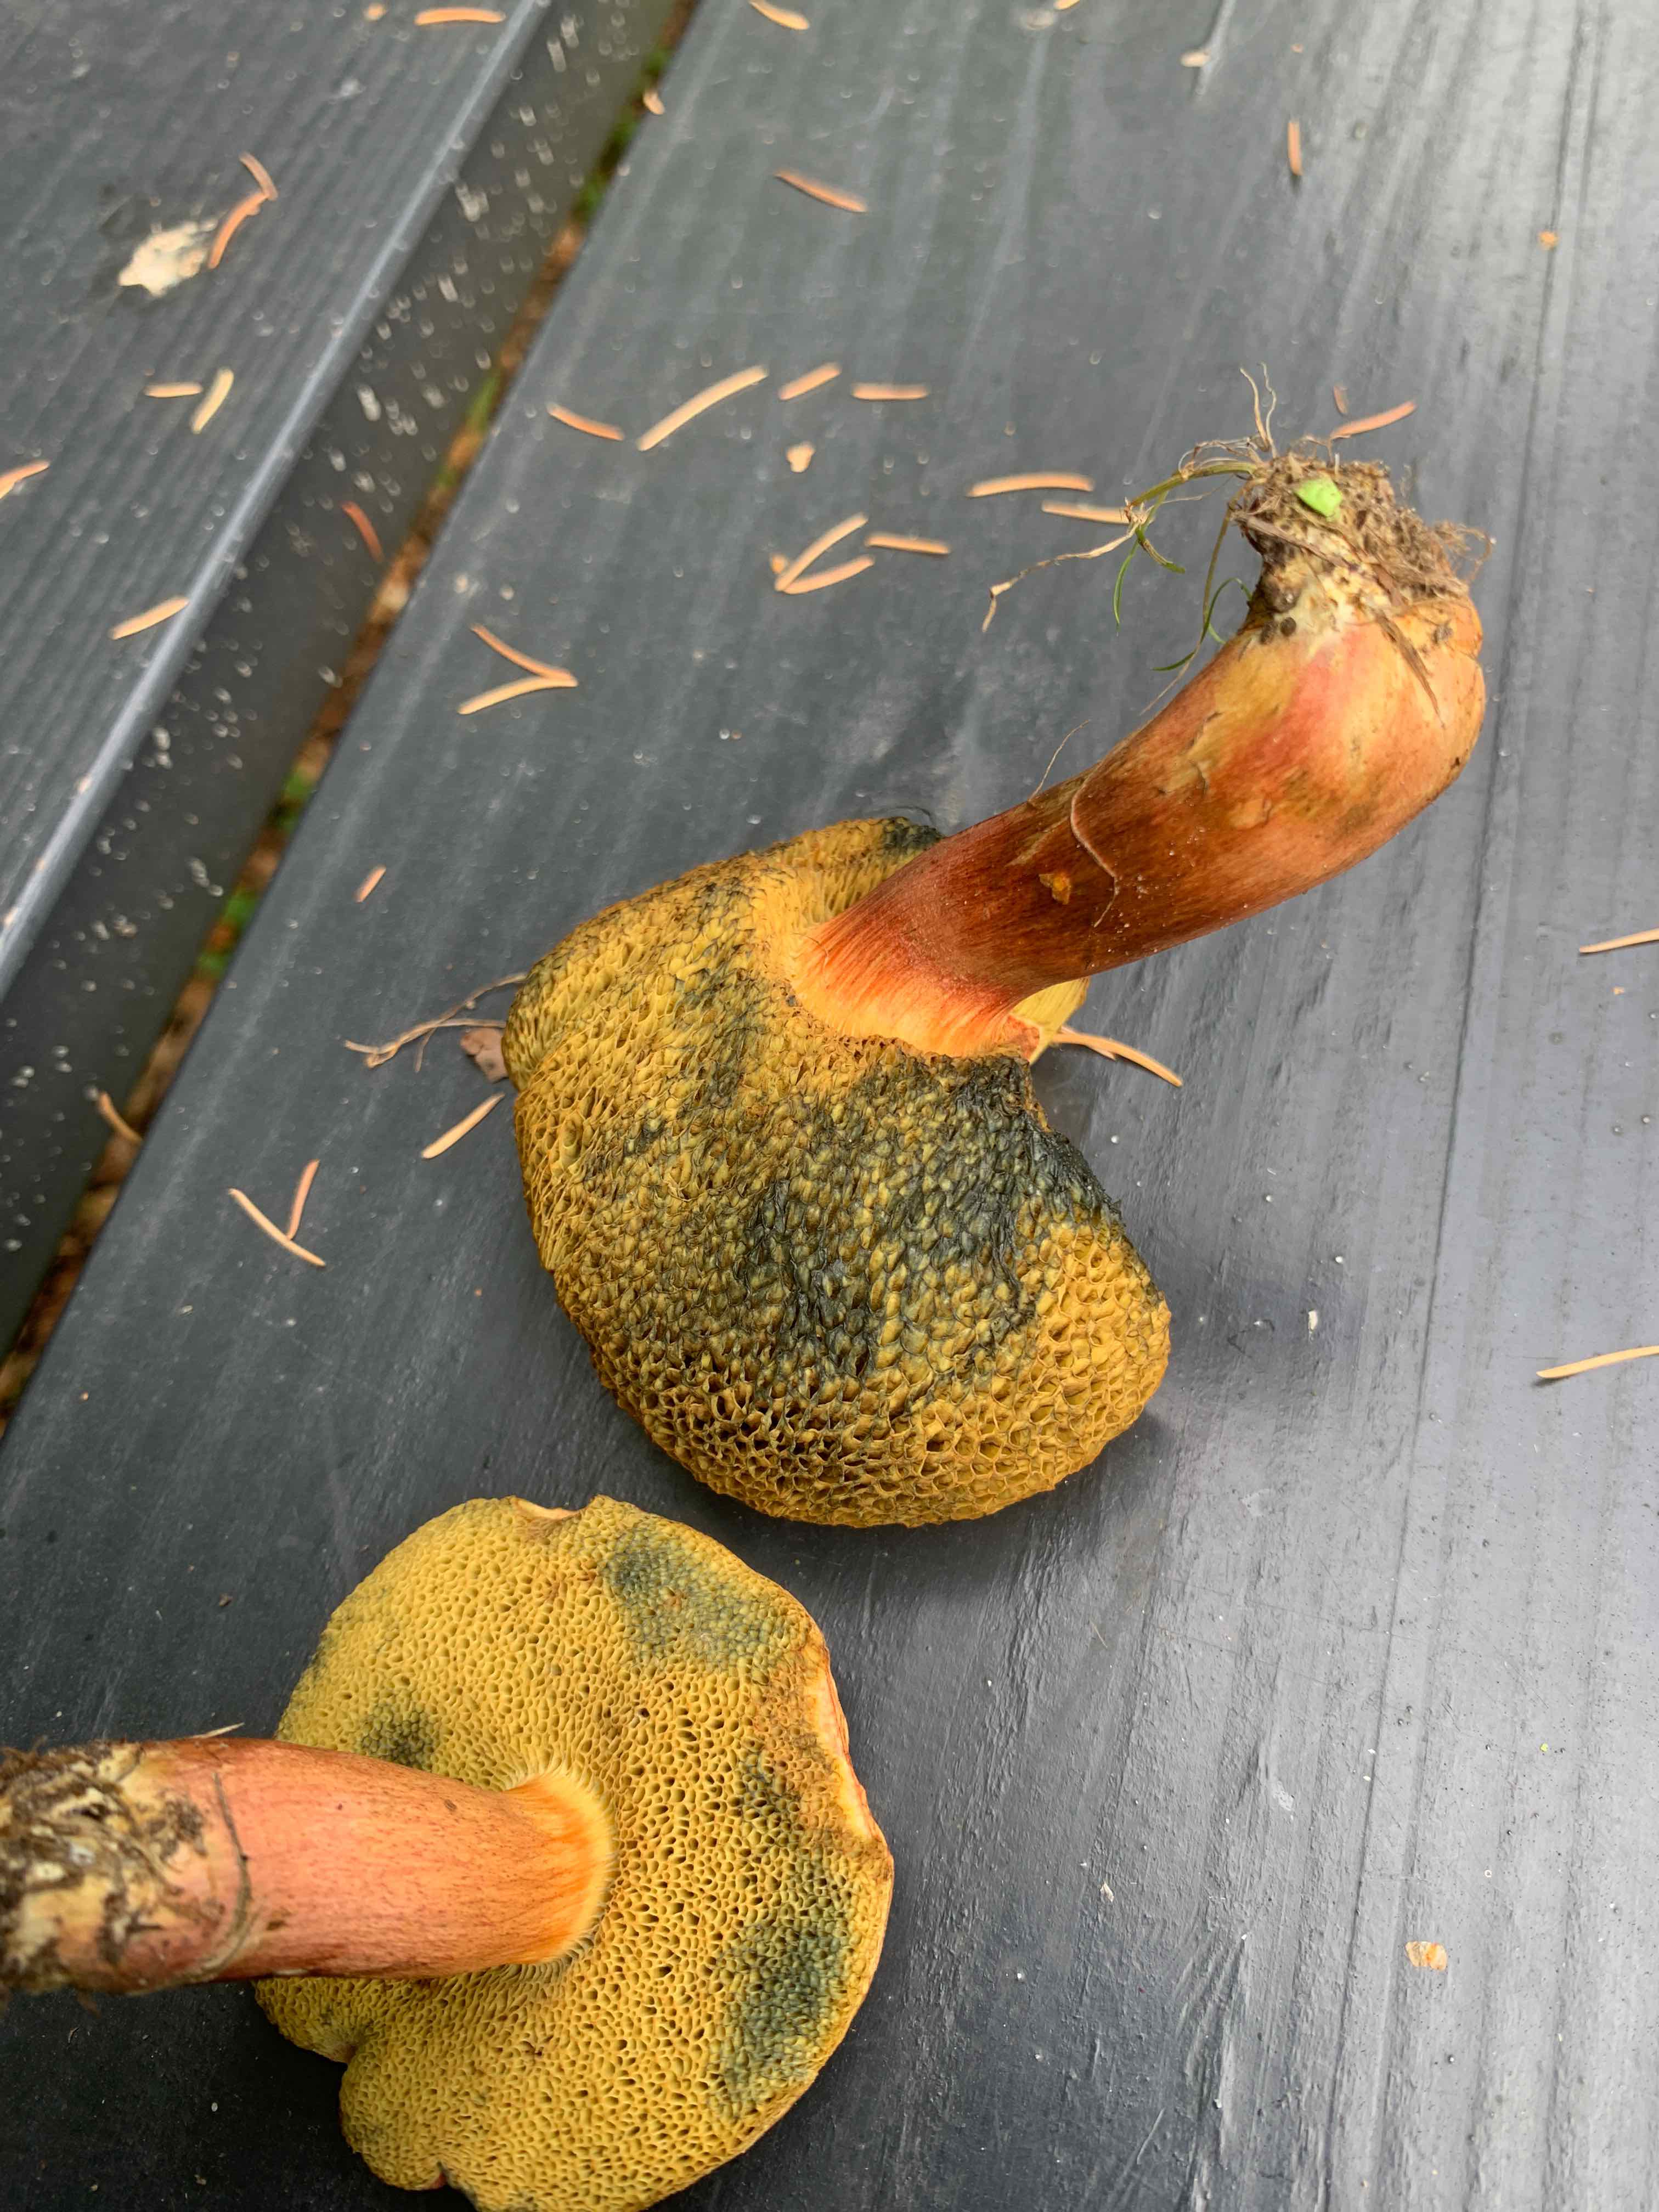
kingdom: Fungi
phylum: Basidiomycota
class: Agaricomycetes
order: Boletales
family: Boletaceae
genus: Hortiboletus
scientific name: Hortiboletus rubellus
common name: blodrød rørhat
